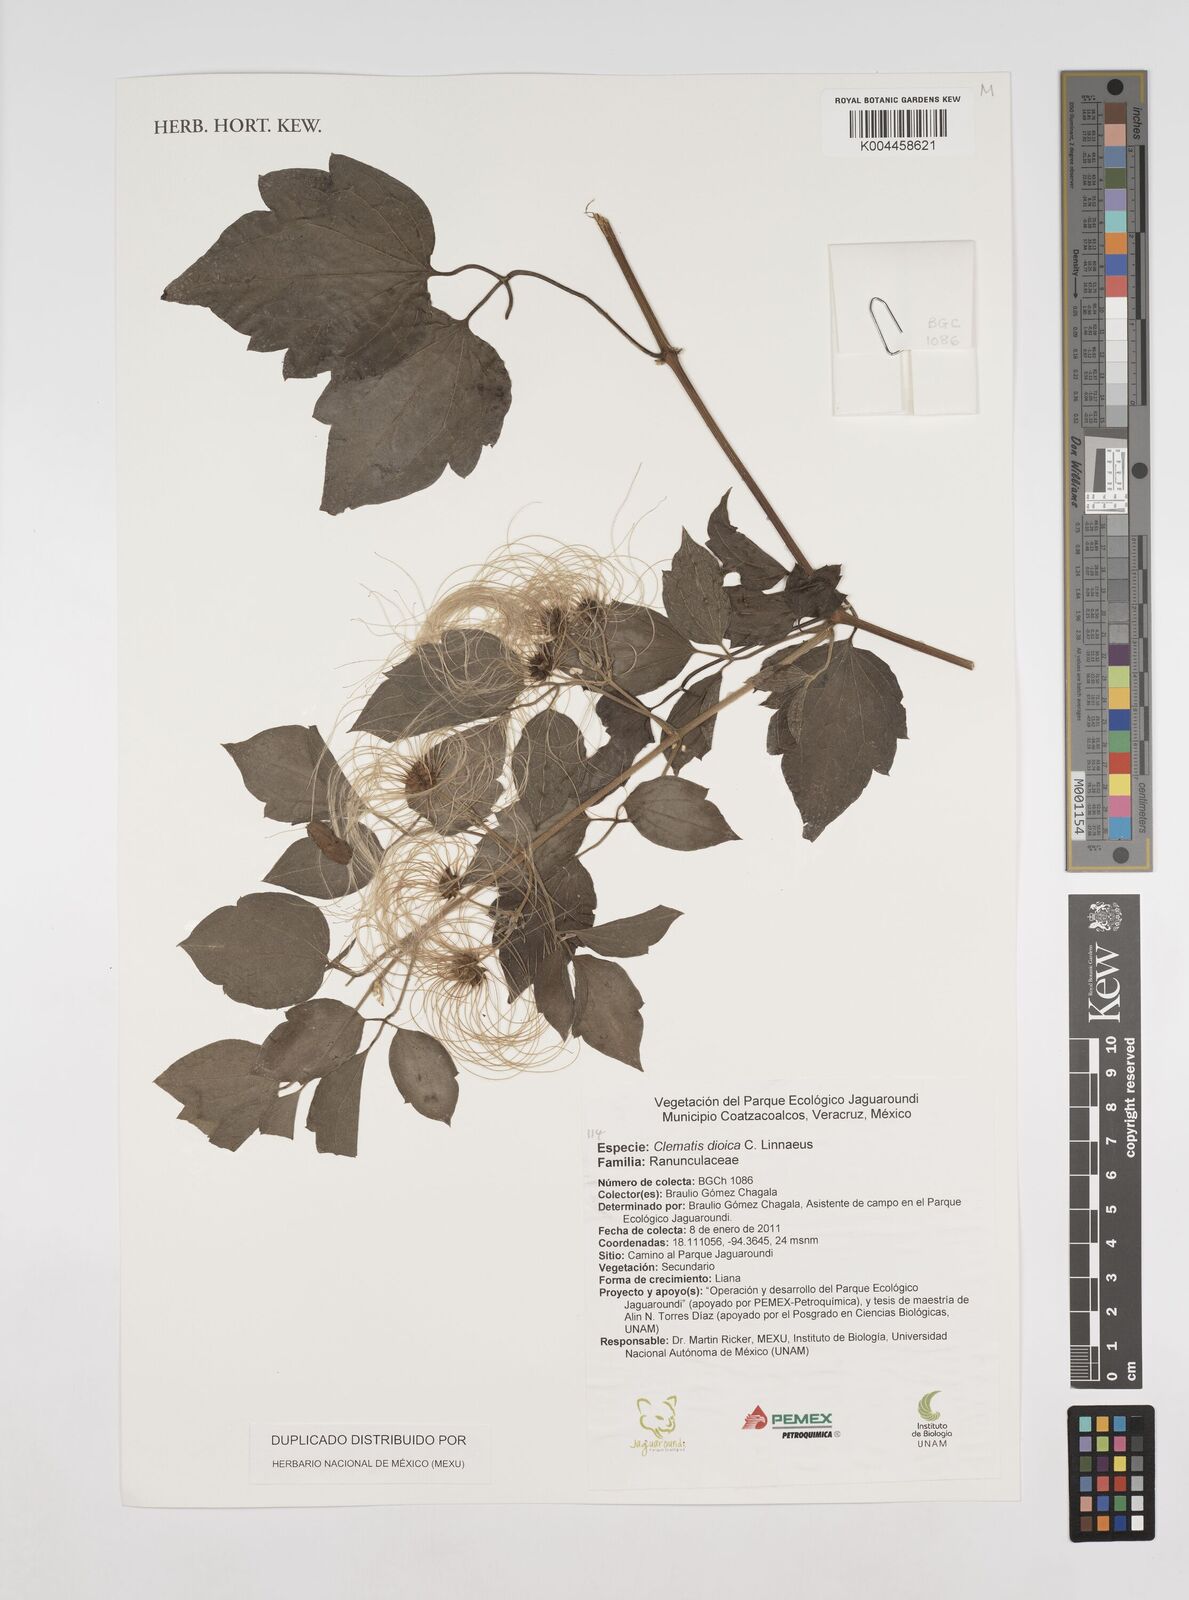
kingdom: Plantae
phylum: Tracheophyta
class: Magnoliopsida
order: Ranunculales
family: Ranunculaceae
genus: Clematis
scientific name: Clematis dioica
